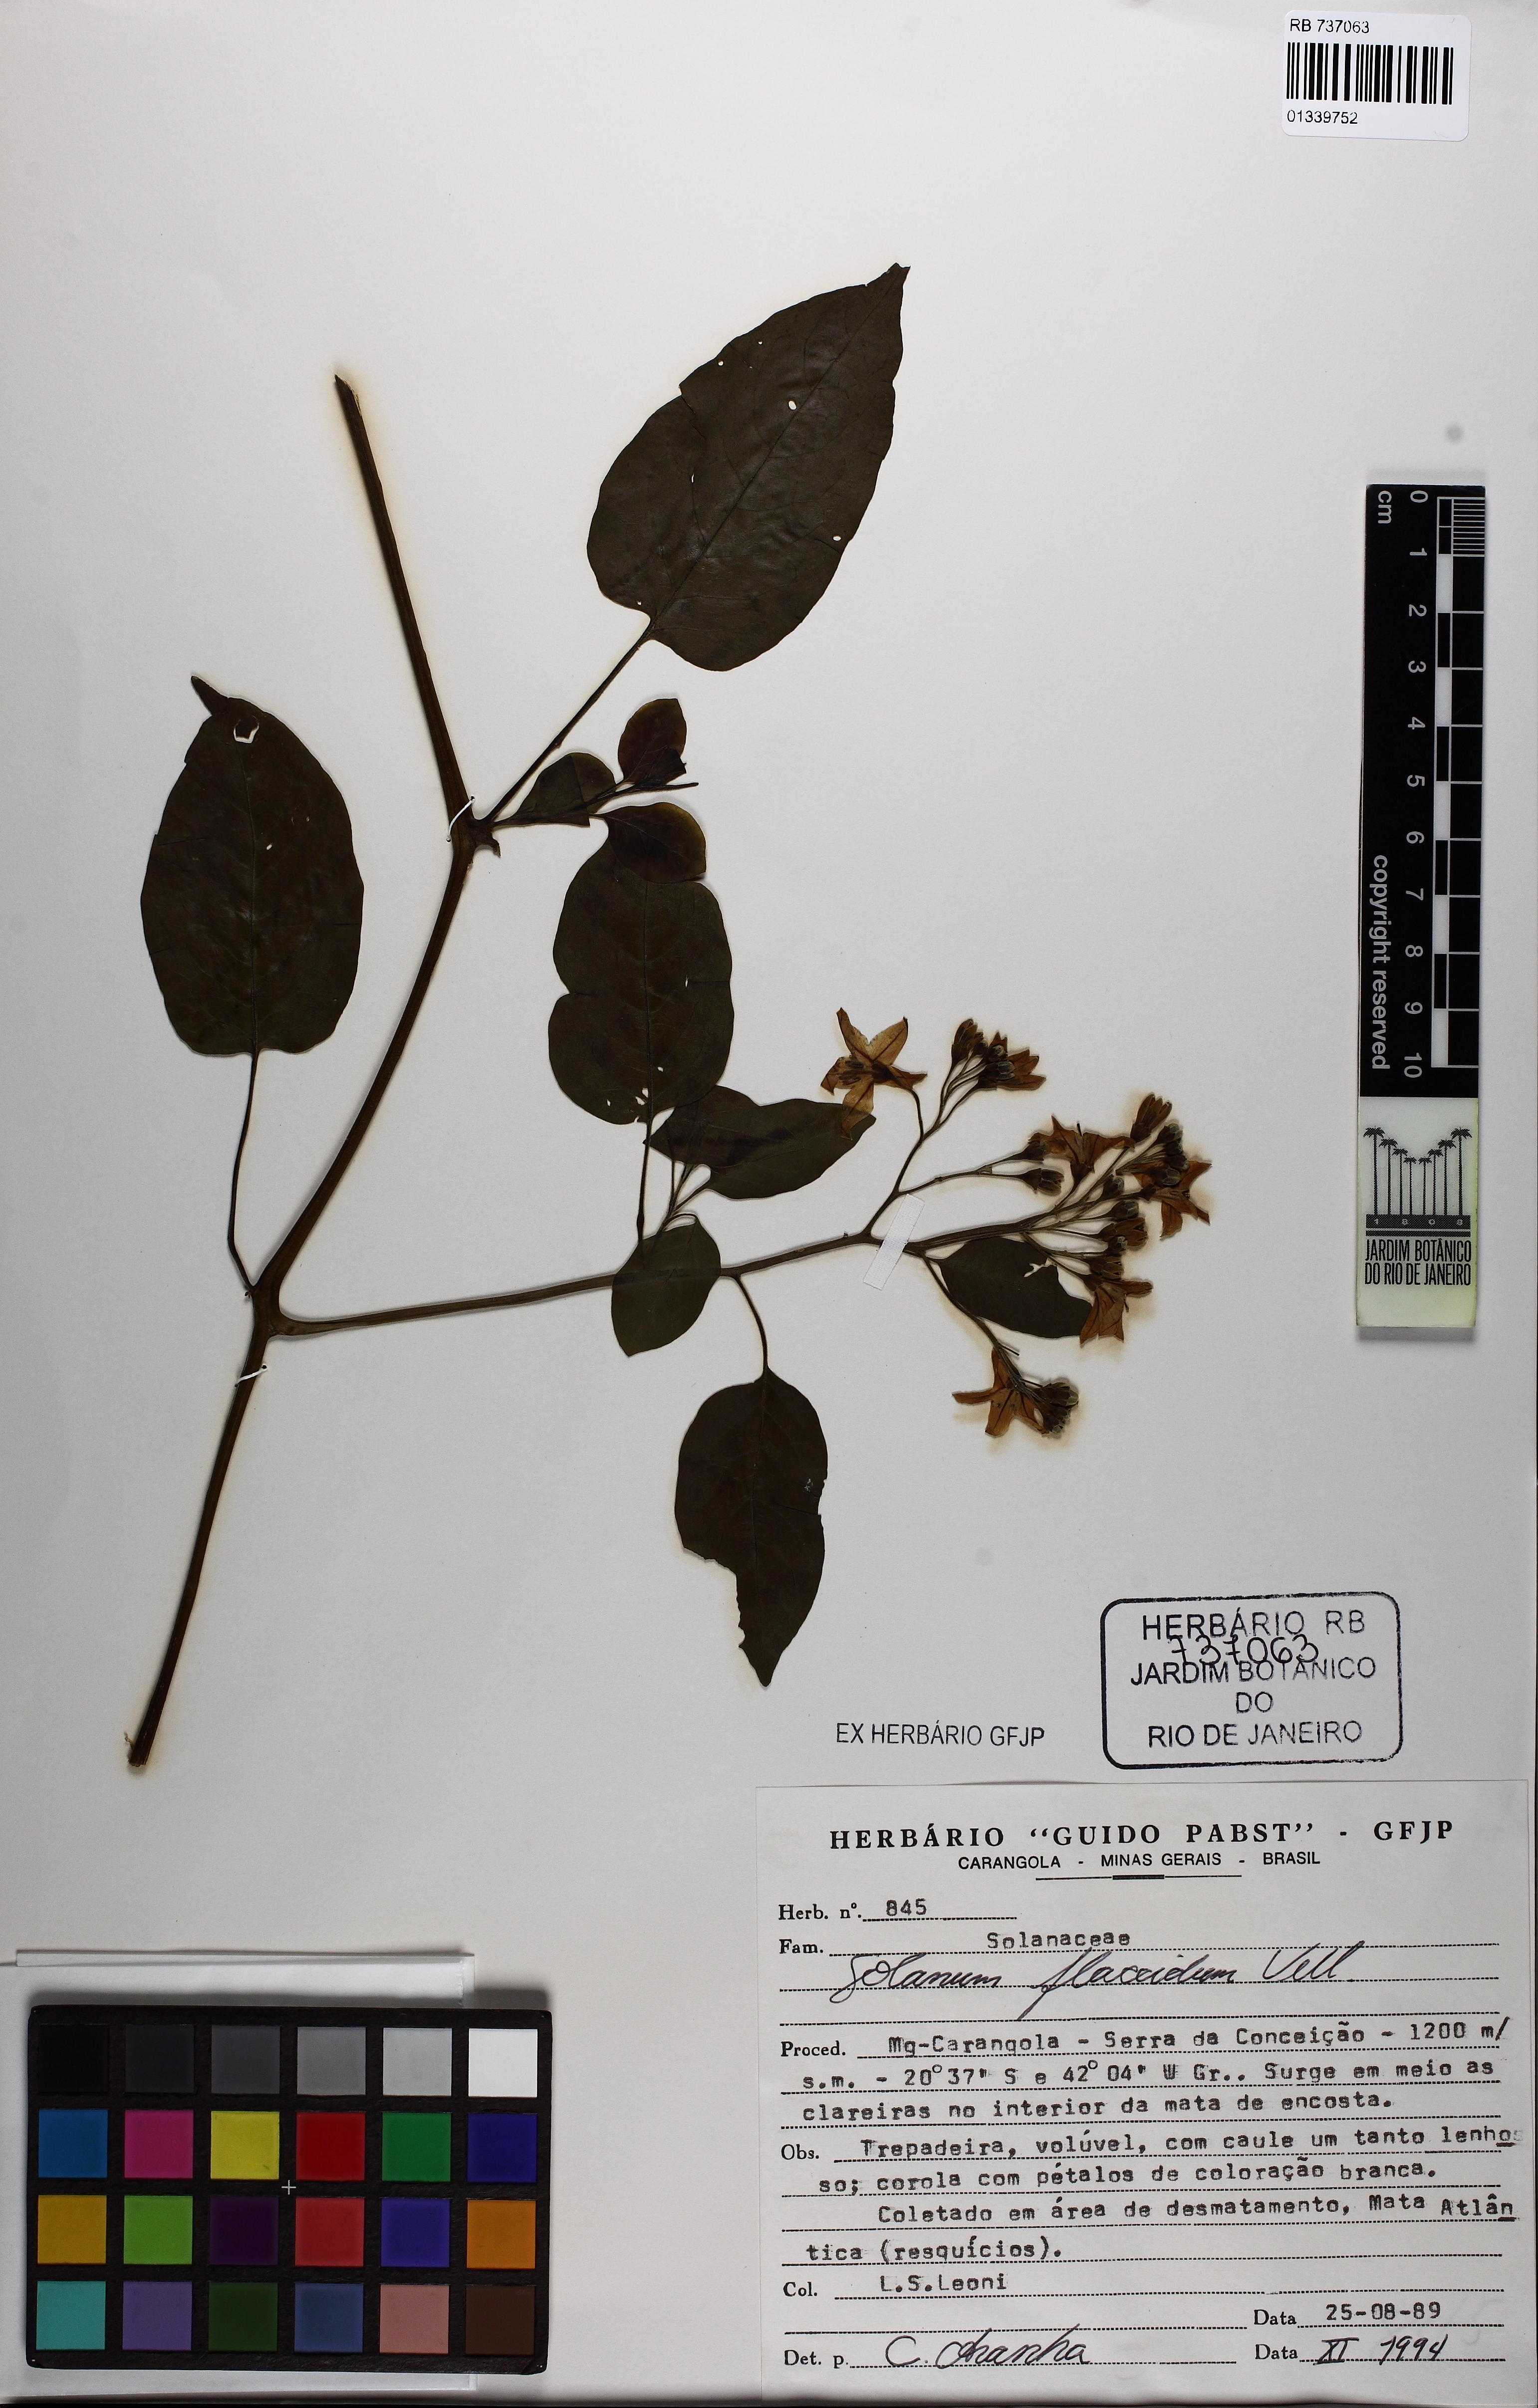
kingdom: Plantae
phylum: Tracheophyta
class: Magnoliopsida
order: Solanales
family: Solanaceae
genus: Solanum
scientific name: Solanum flaccidum
